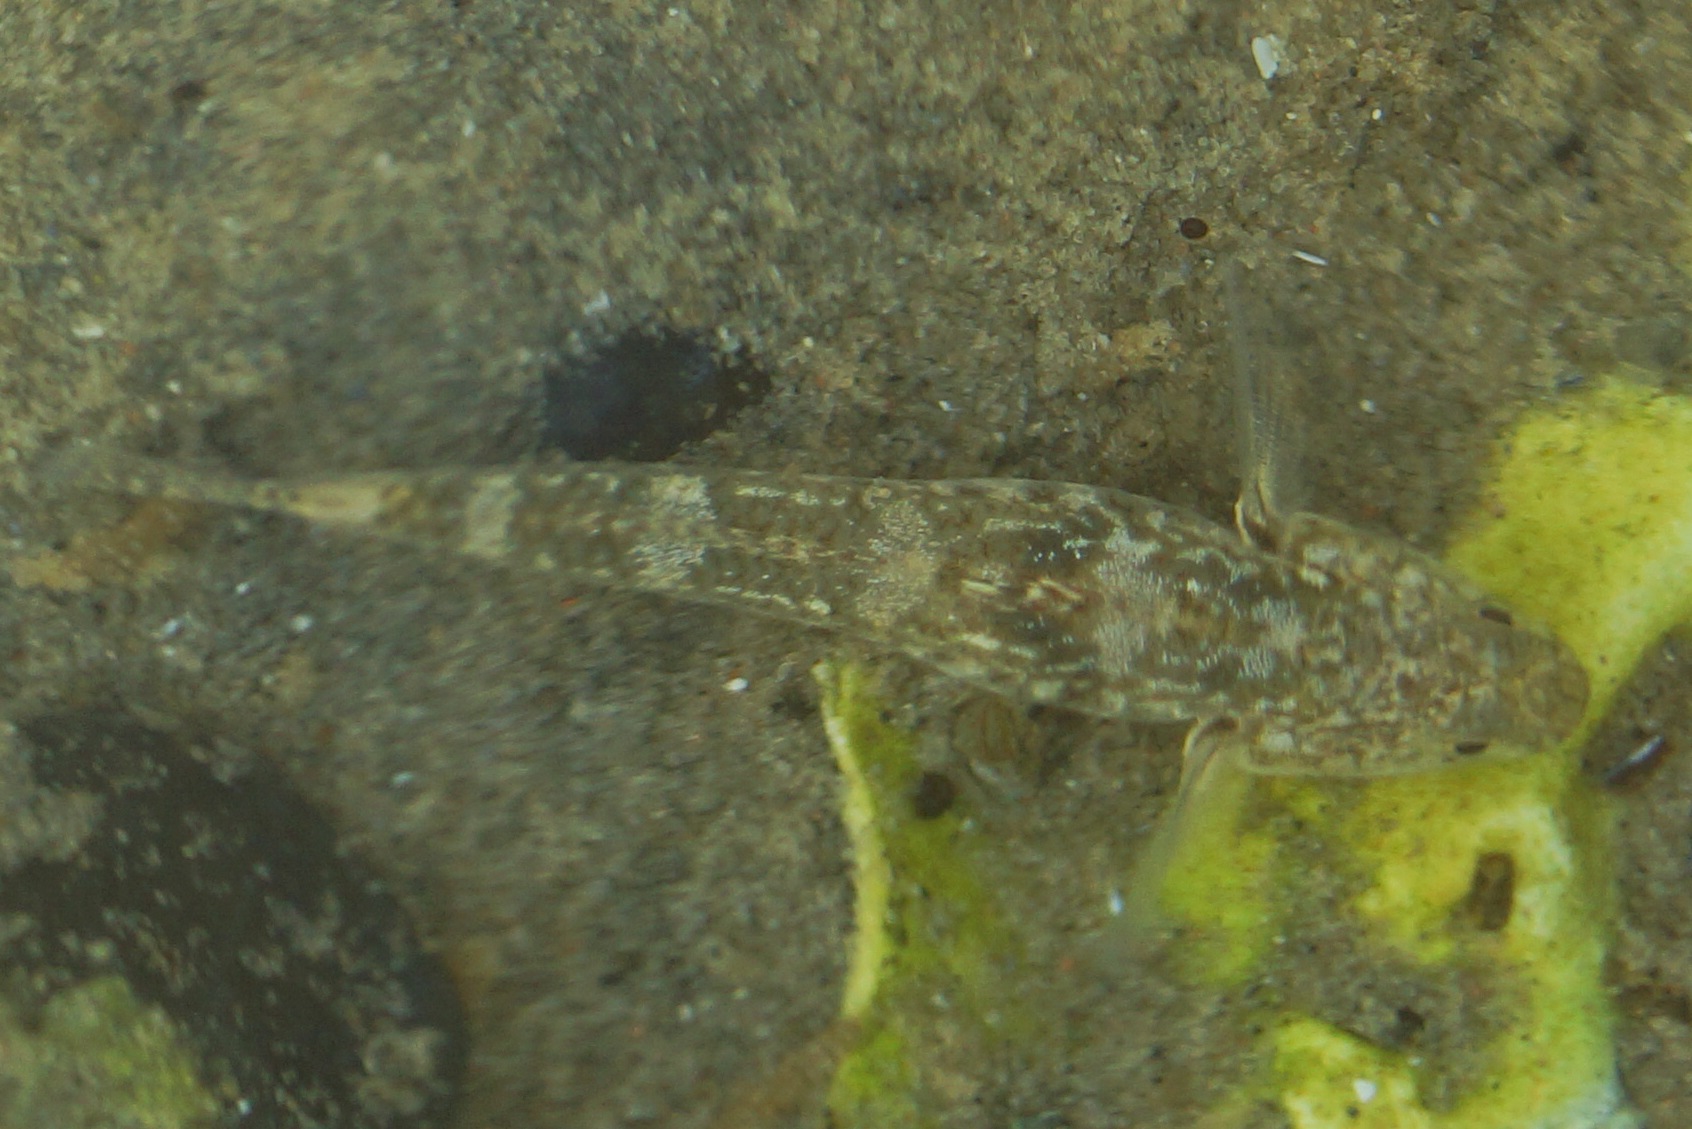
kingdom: Animalia
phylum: Chordata
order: Perciformes
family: Gobiidae
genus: Pomatoschistus
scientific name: Pomatoschistus
